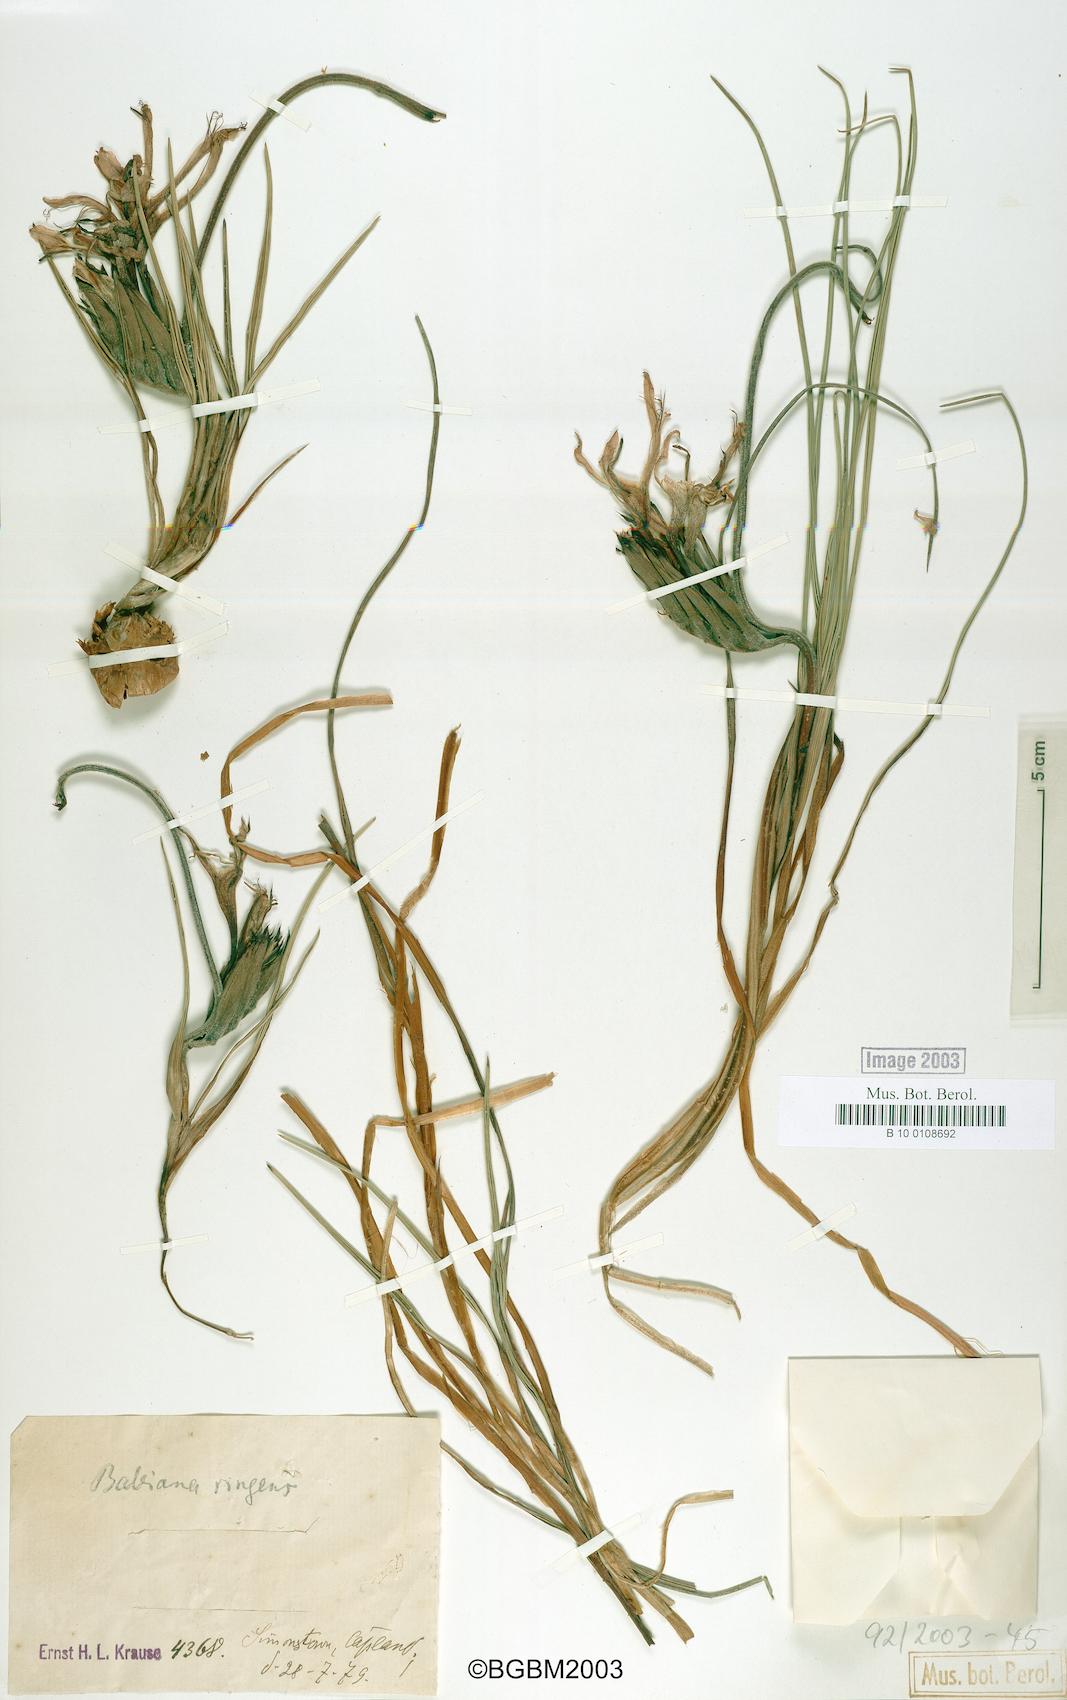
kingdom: Plantae
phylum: Tracheophyta
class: Liliopsida
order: Asparagales
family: Iridaceae
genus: Babiana
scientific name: Babiana ringens
